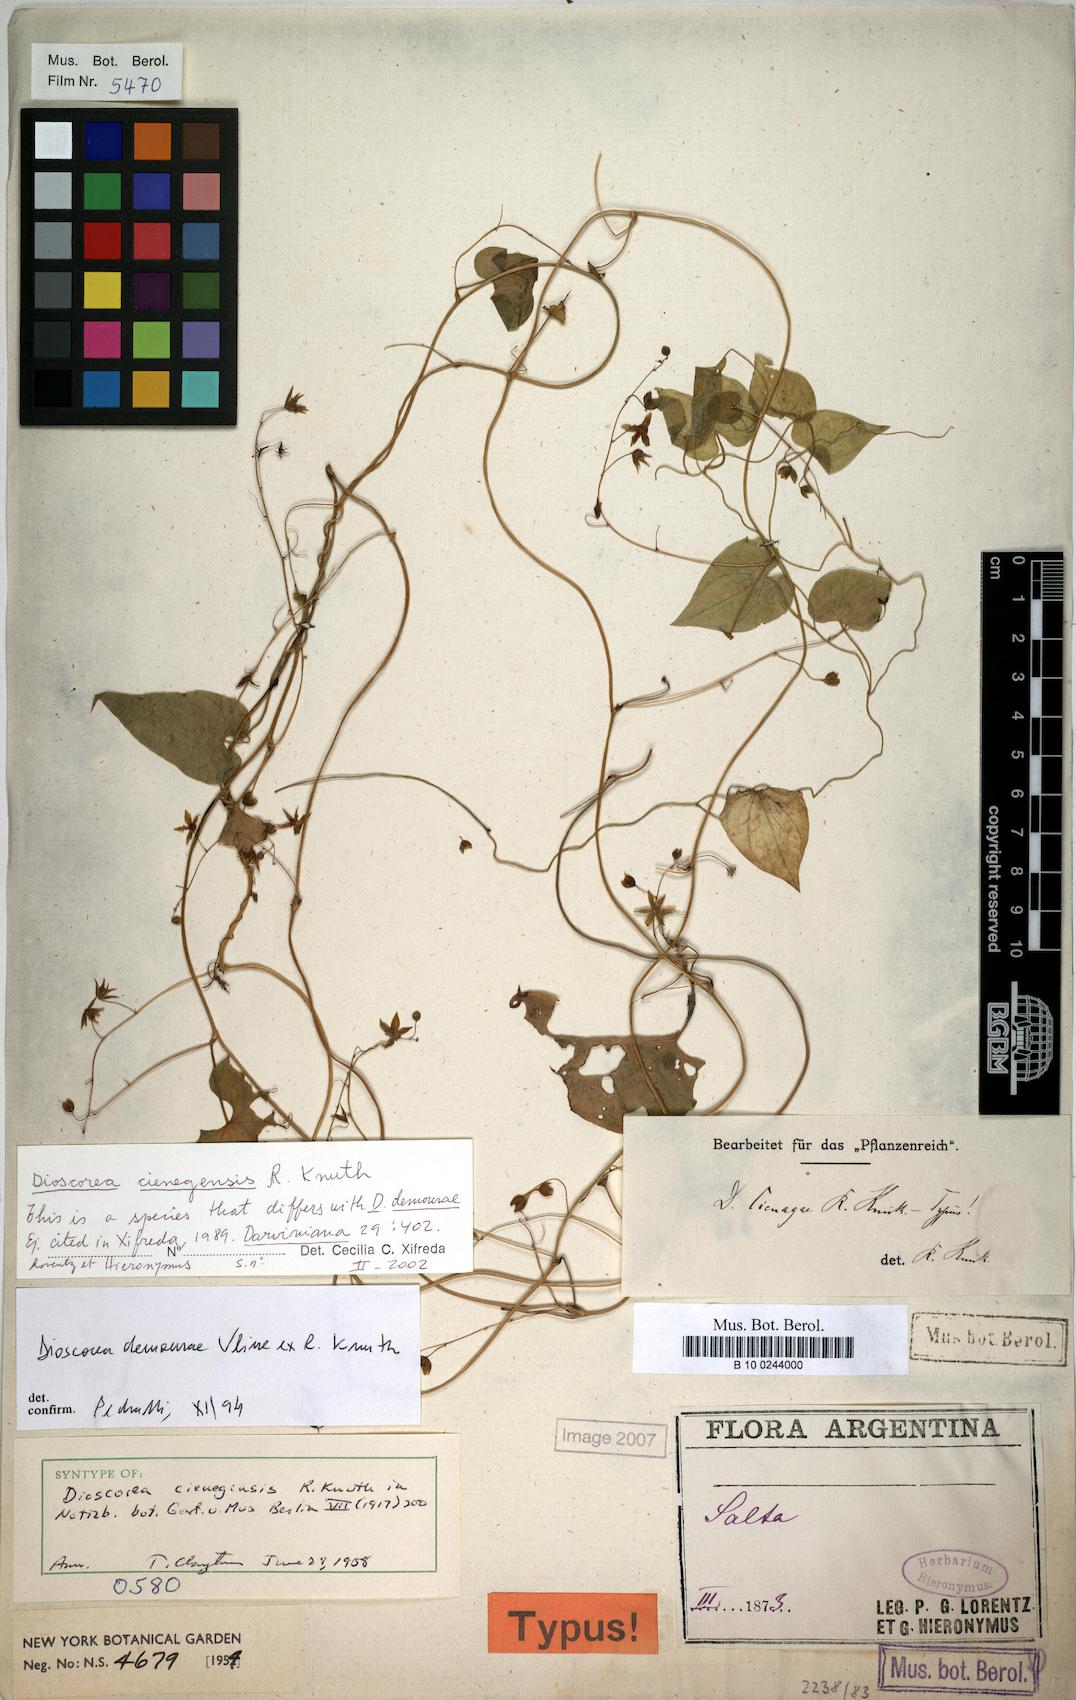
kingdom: Plantae
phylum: Tracheophyta
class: Liliopsida
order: Dioscoreales
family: Dioscoreaceae
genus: Dioscorea
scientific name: Dioscorea cienegensis
